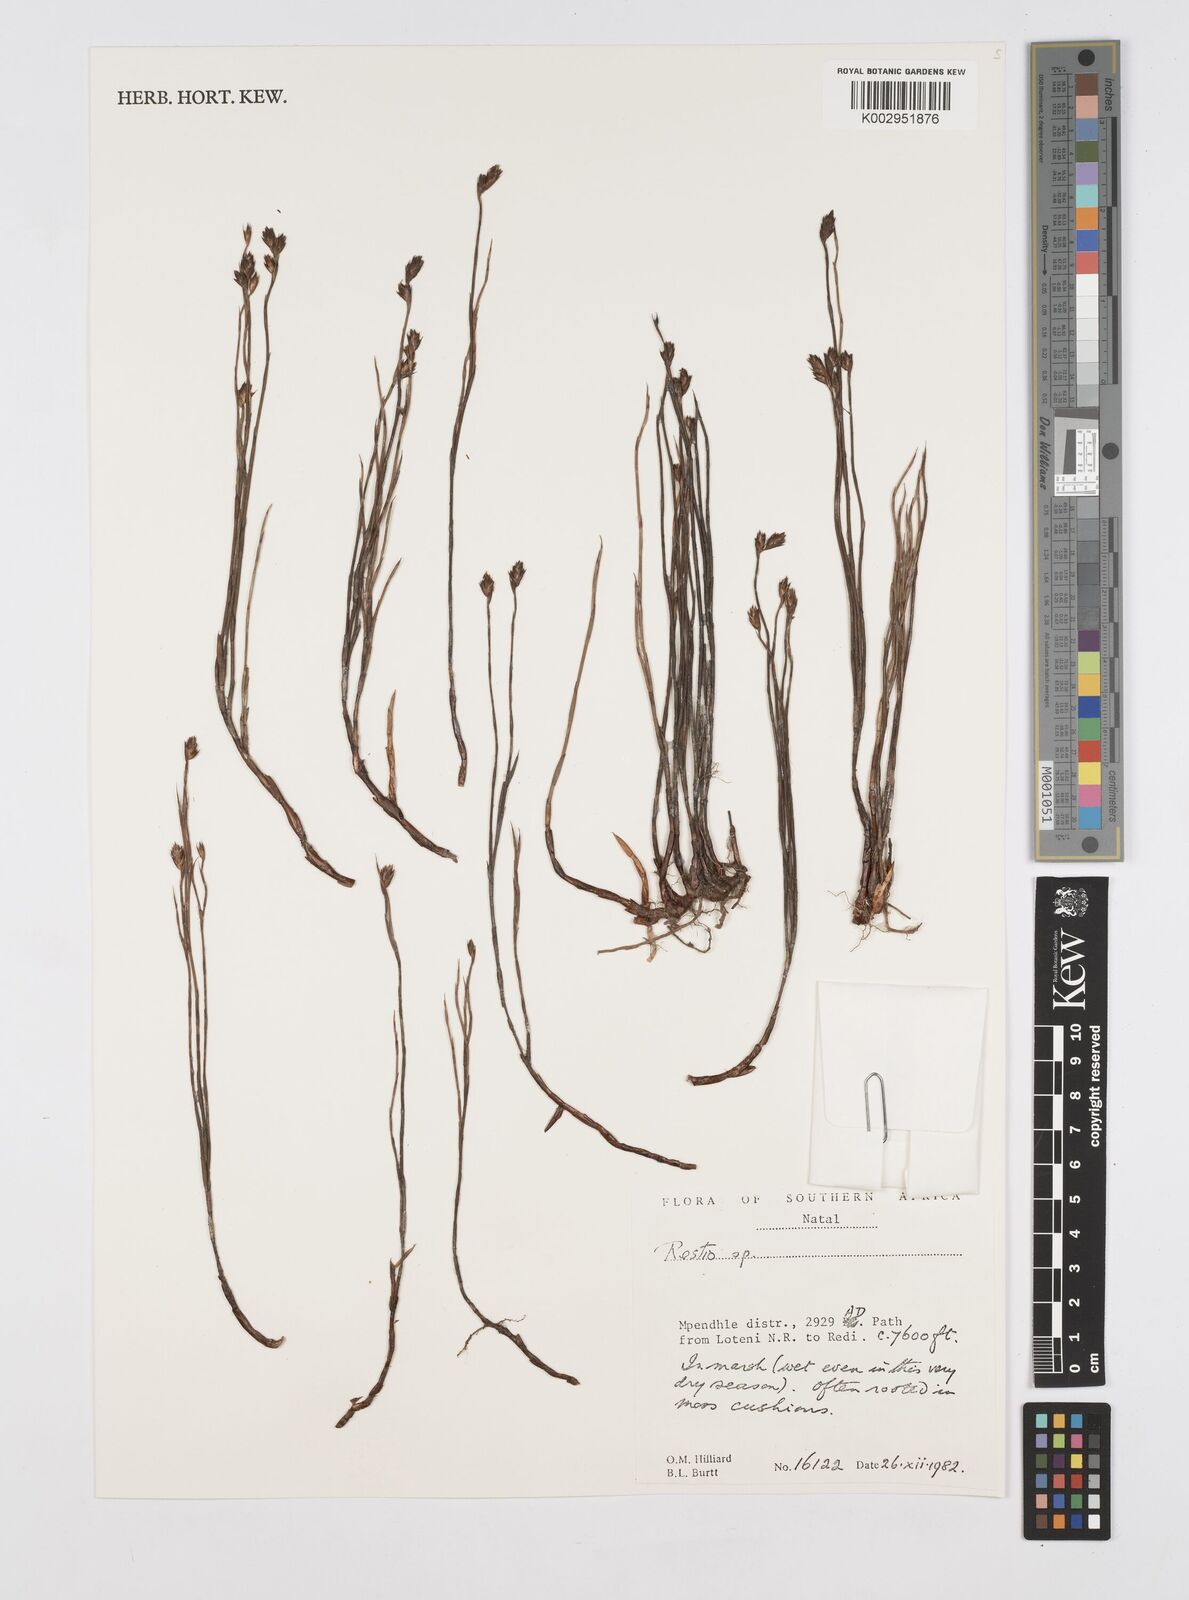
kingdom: Plantae
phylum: Tracheophyta
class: Liliopsida
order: Poales
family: Restionaceae
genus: Restio
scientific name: Restio
